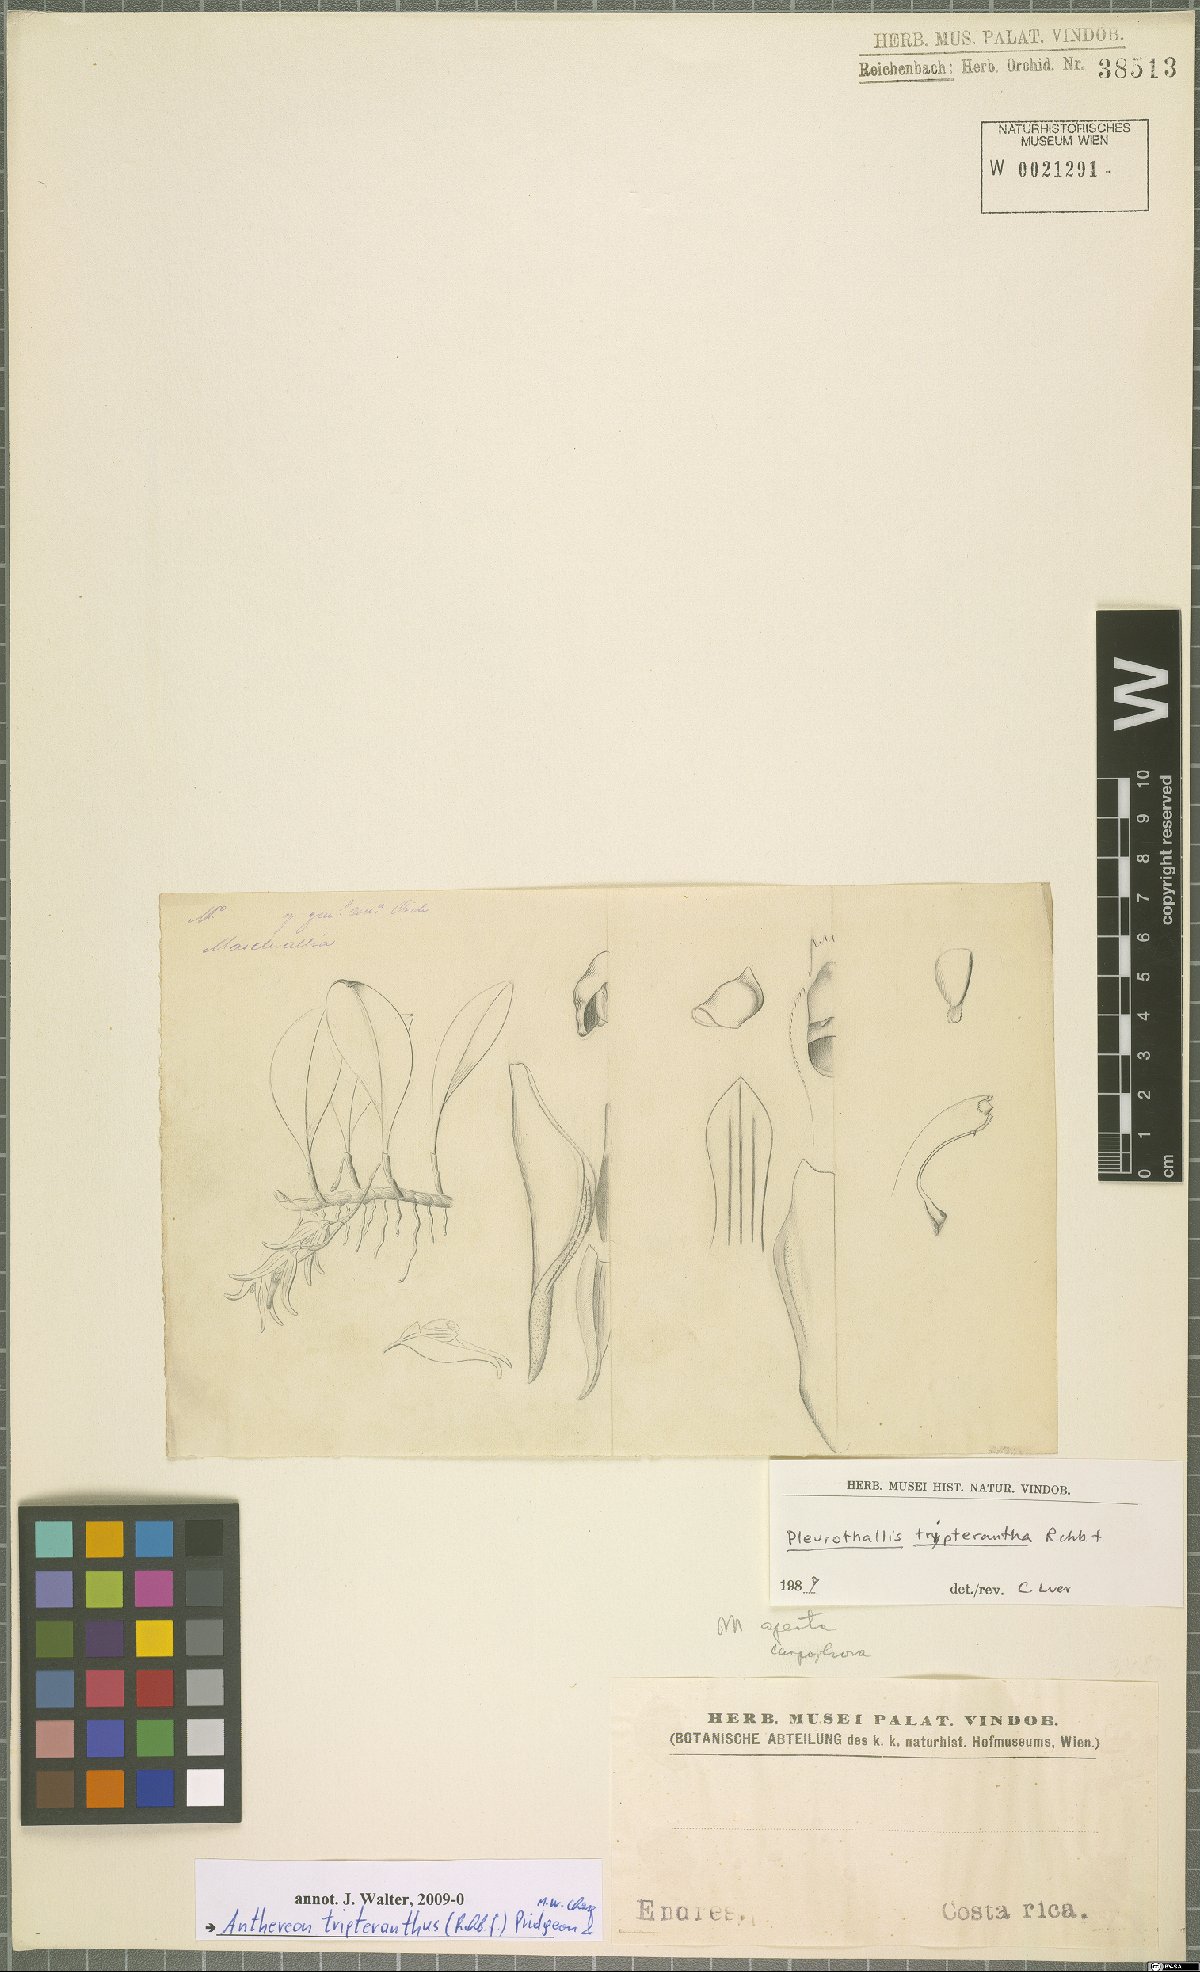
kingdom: Plantae
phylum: Tracheophyta
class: Liliopsida
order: Asparagales
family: Orchidaceae
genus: Pabstiella
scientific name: Pabstiella tripterantha
